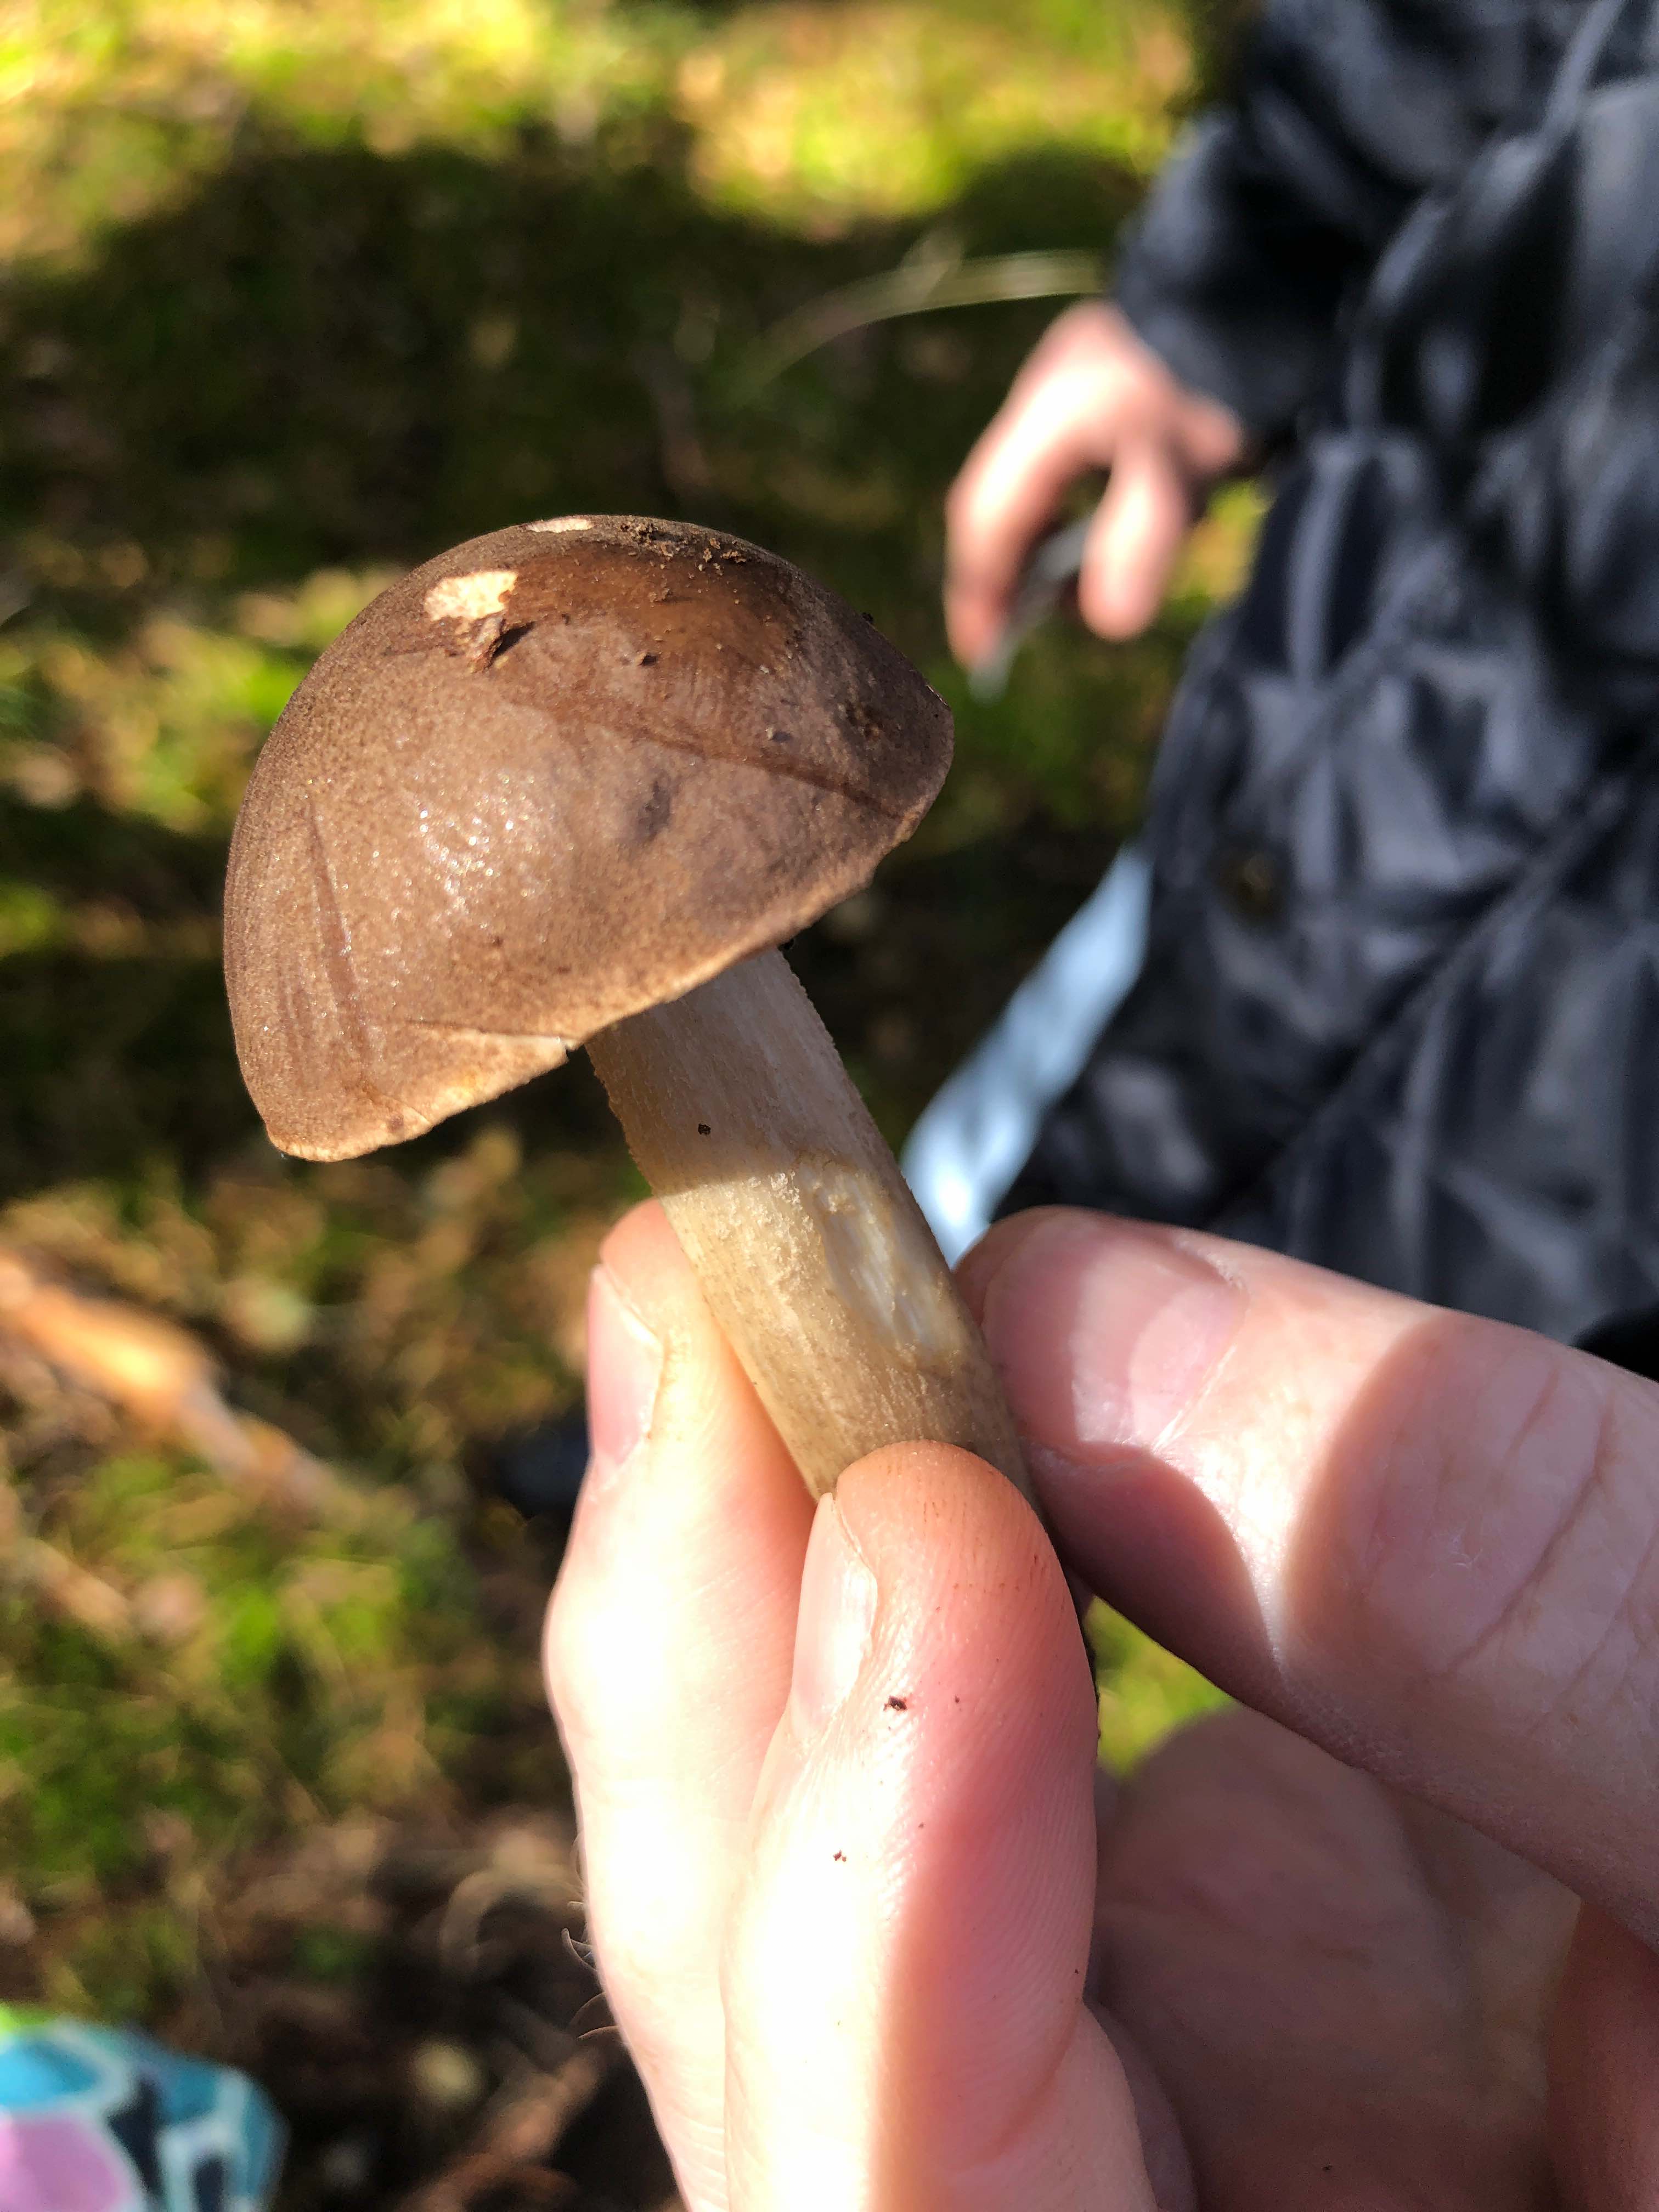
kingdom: Fungi
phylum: Basidiomycota
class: Agaricomycetes
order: Boletales
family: Boletaceae
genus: Leccinum
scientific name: Leccinum
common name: skælrørhat
